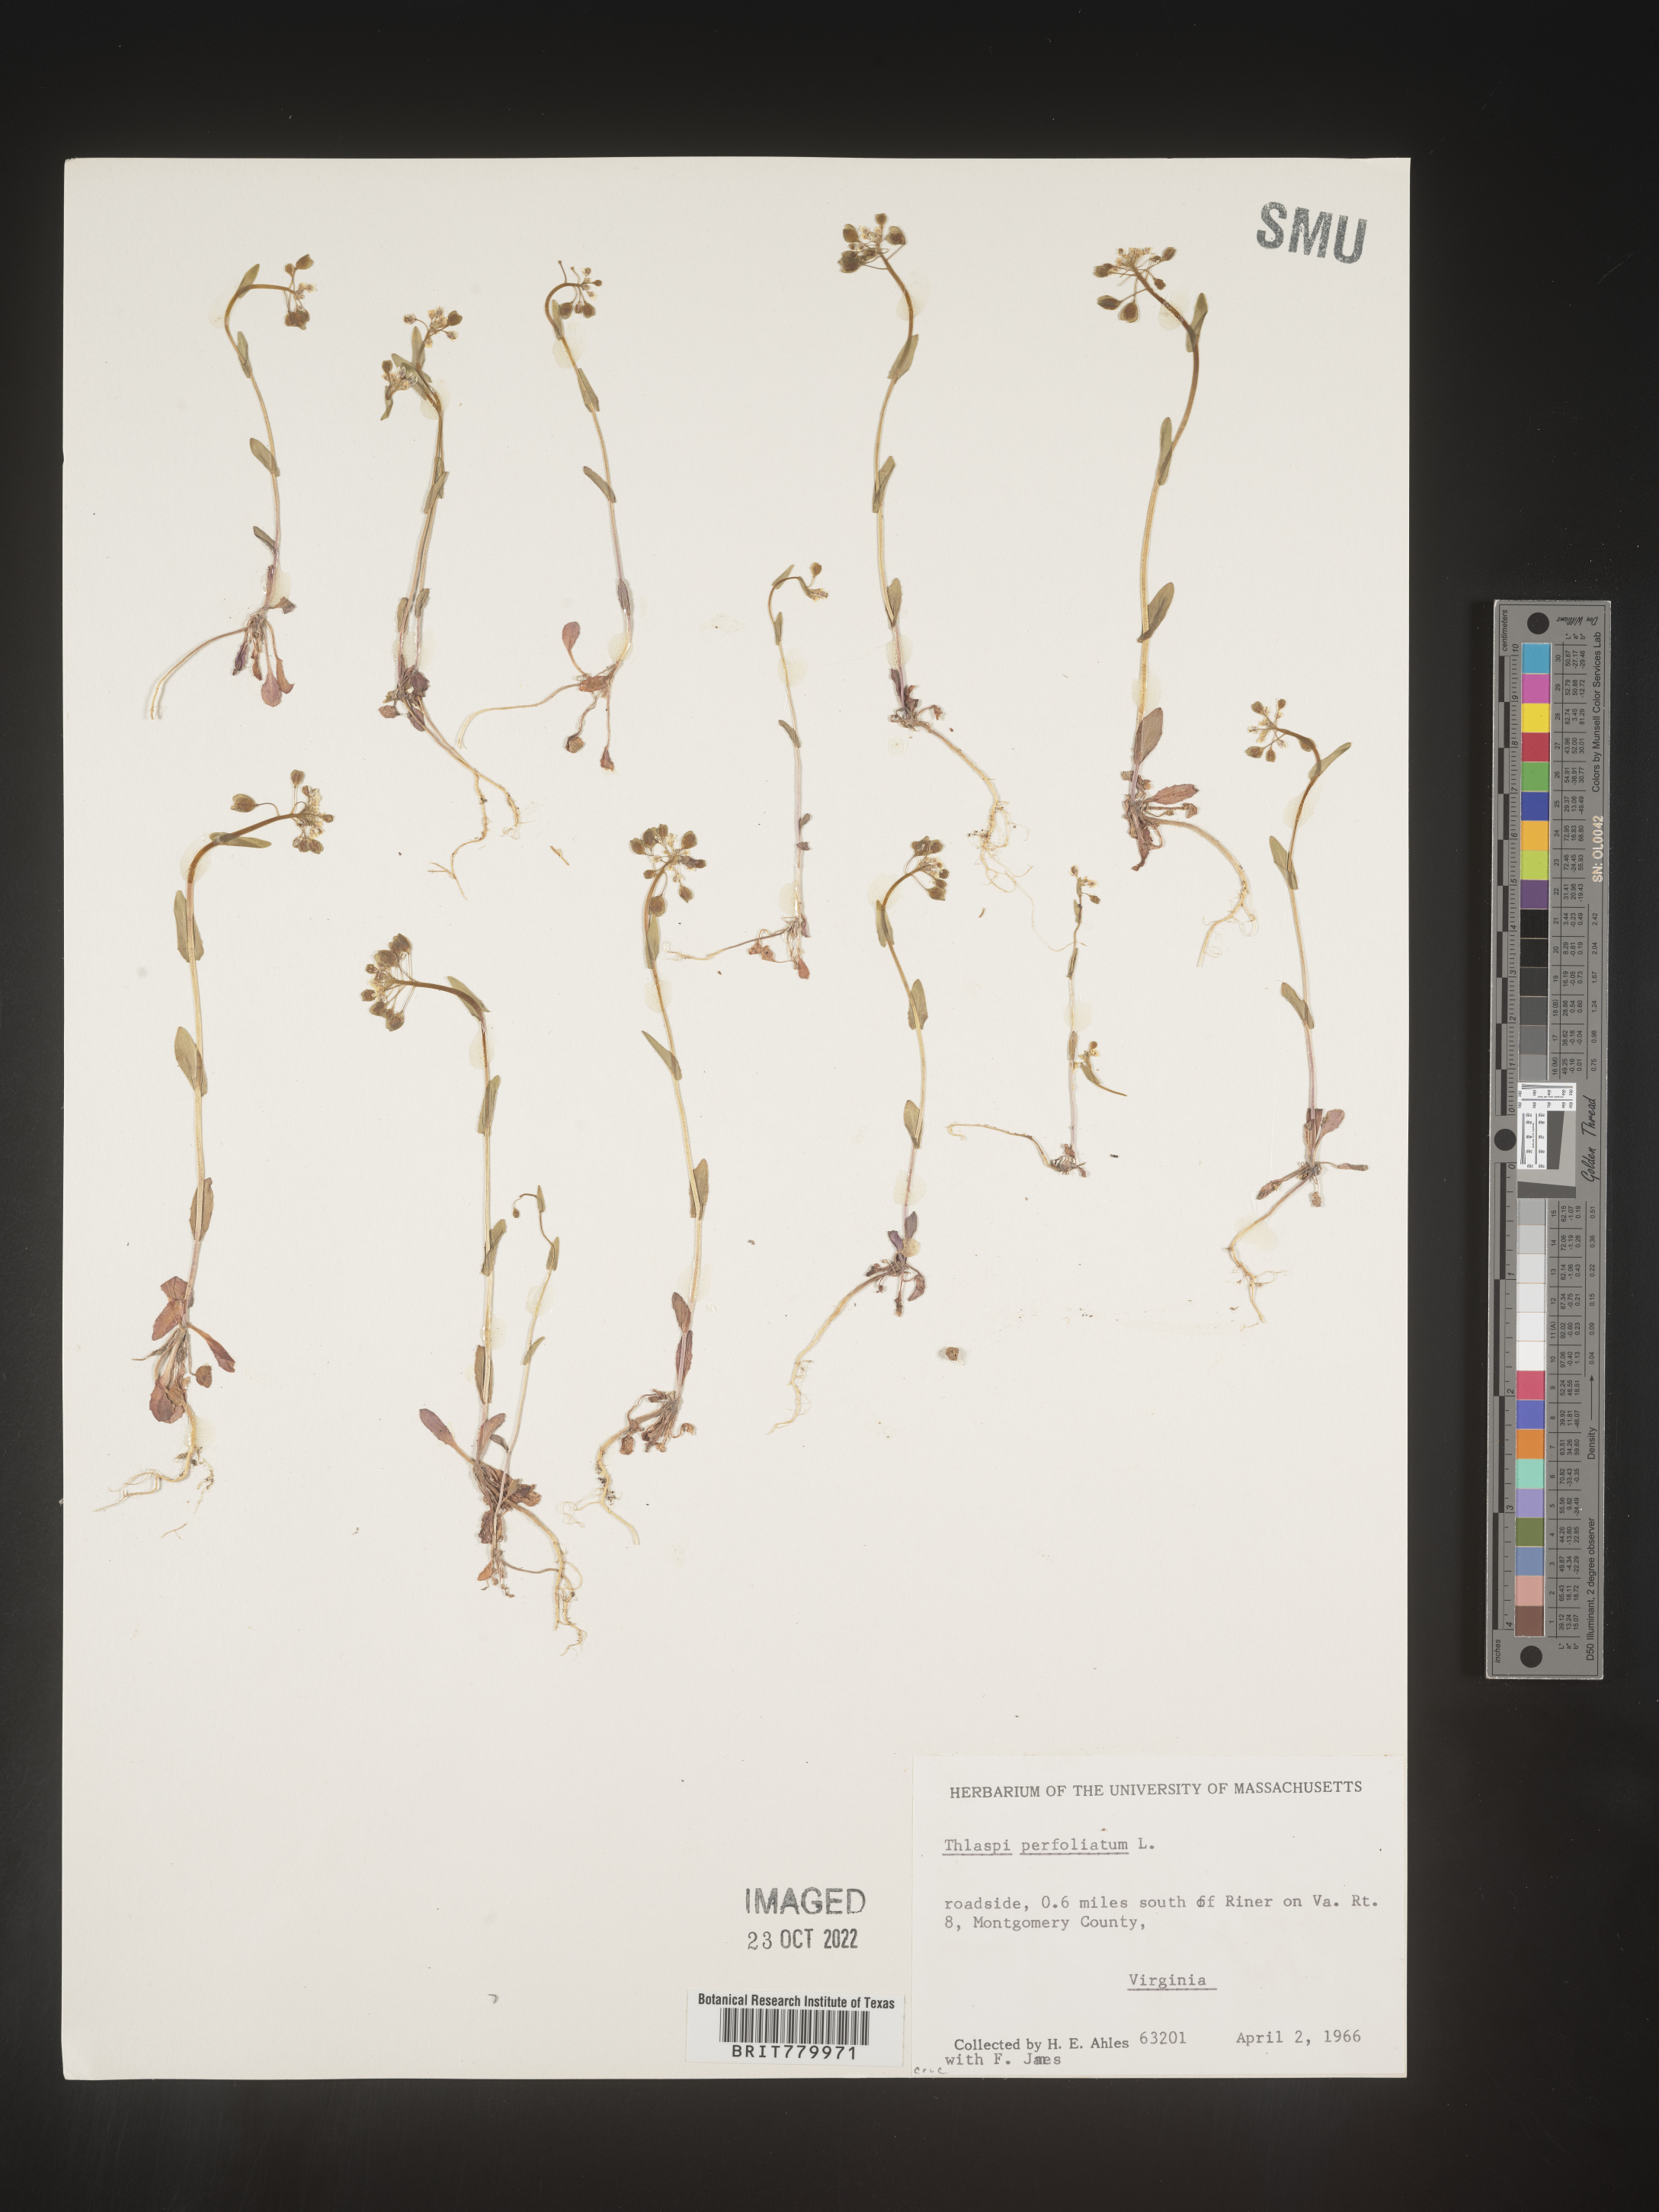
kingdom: Plantae
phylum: Tracheophyta
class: Magnoliopsida
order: Brassicales
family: Brassicaceae
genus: Thlaspi
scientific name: Thlaspi
